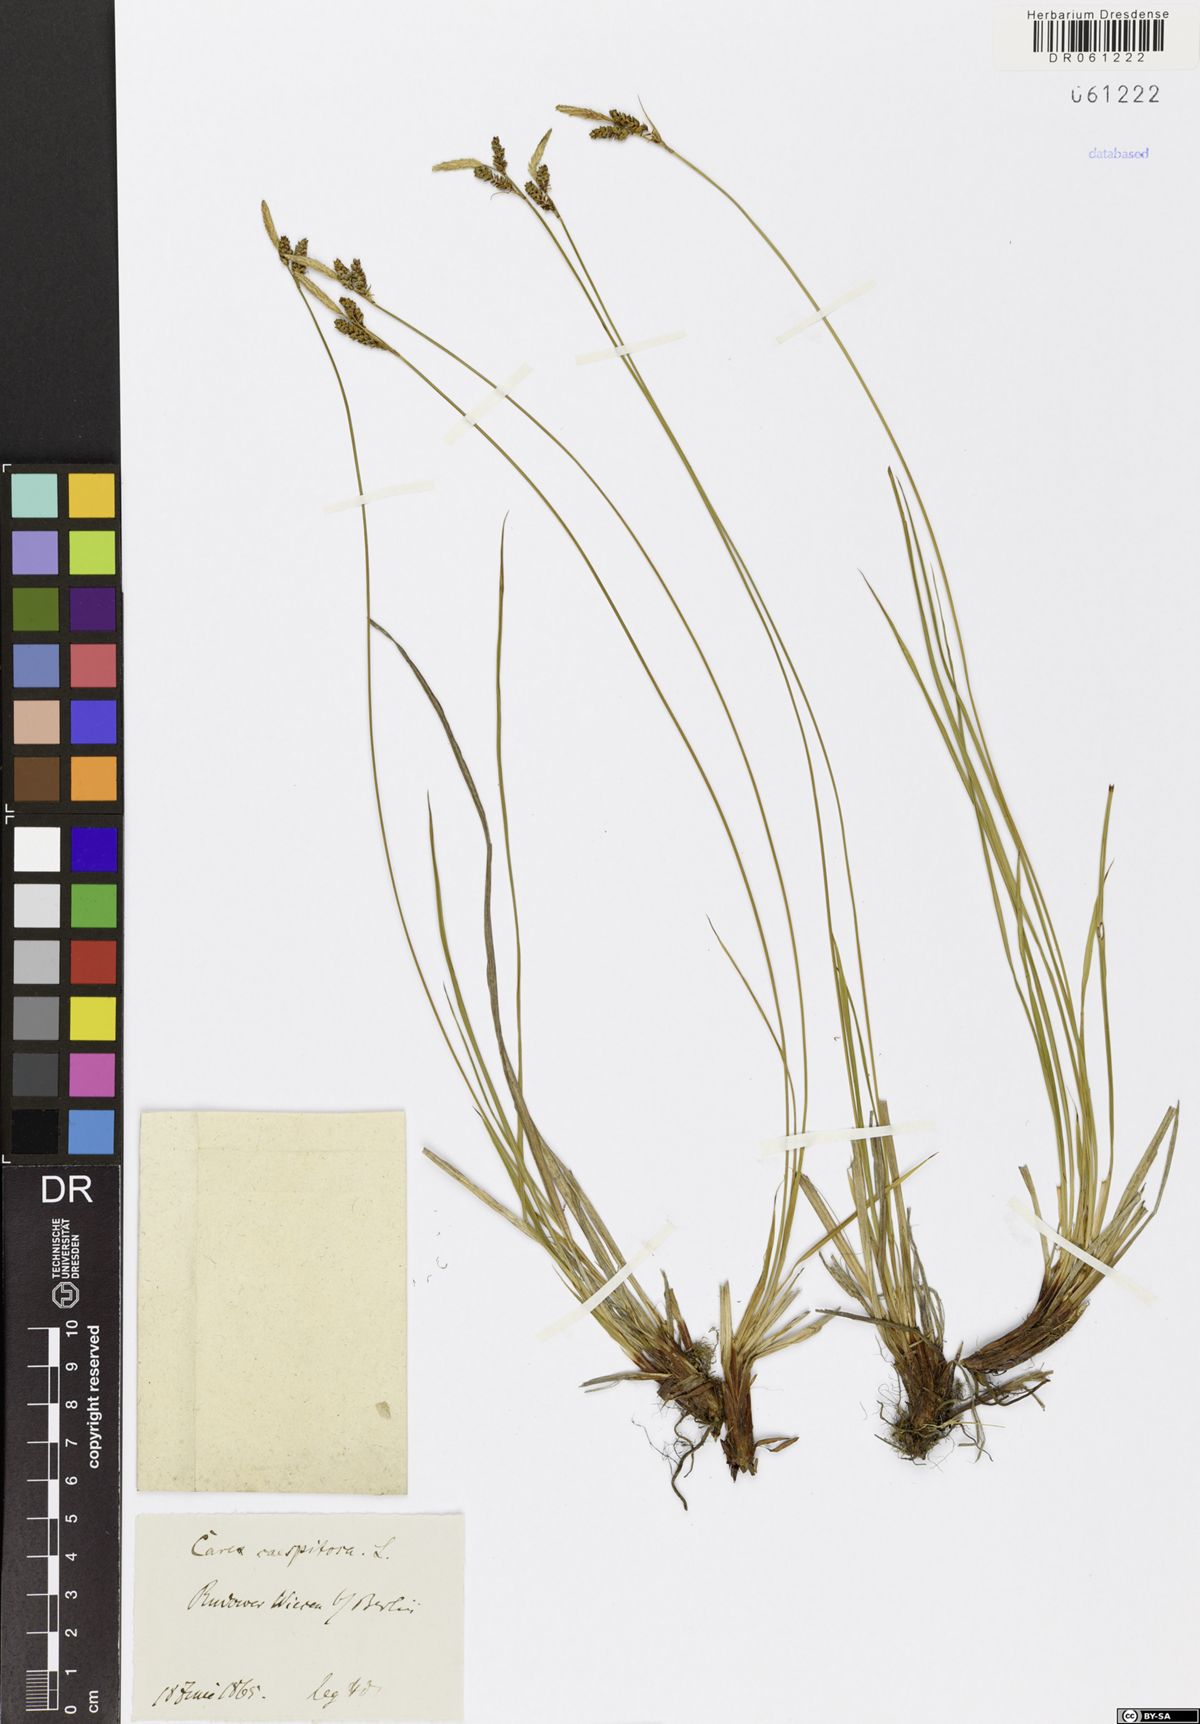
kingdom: Plantae
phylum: Tracheophyta
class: Liliopsida
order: Poales
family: Cyperaceae
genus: Carex
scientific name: Carex cespitosa
